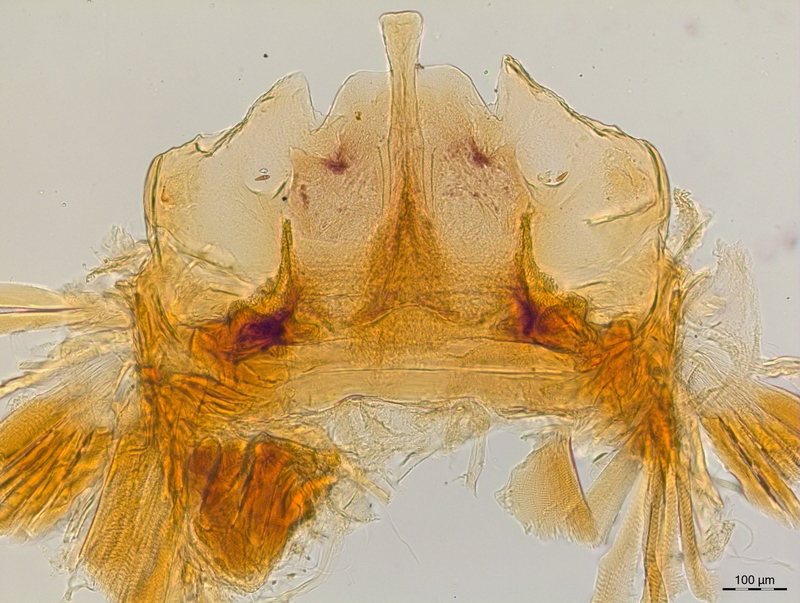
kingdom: Animalia
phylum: Arthropoda
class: Diplopoda
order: Chordeumatida
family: Craspedosomatidae
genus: Craspedosoma
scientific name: Craspedosoma taurinorum
